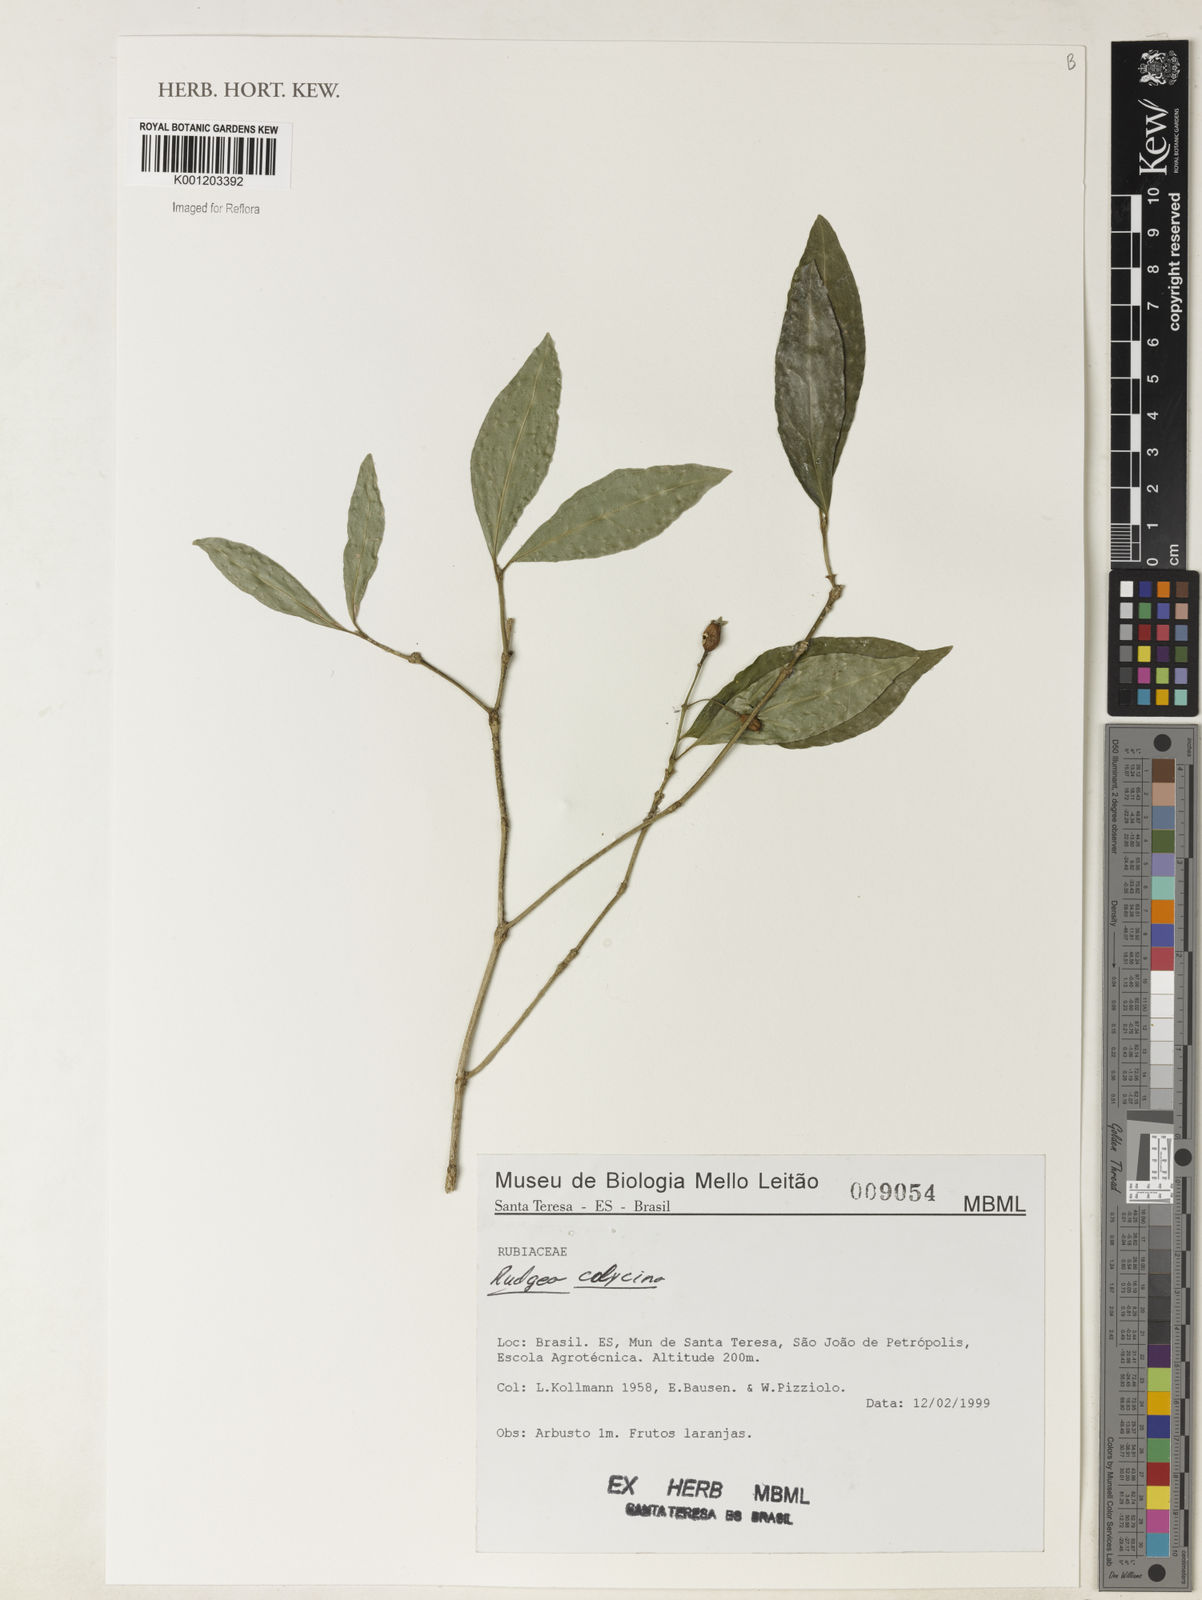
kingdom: Plantae
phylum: Tracheophyta
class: Magnoliopsida
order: Gentianales
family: Rubiaceae
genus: Rudgea
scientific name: Rudgea minor
